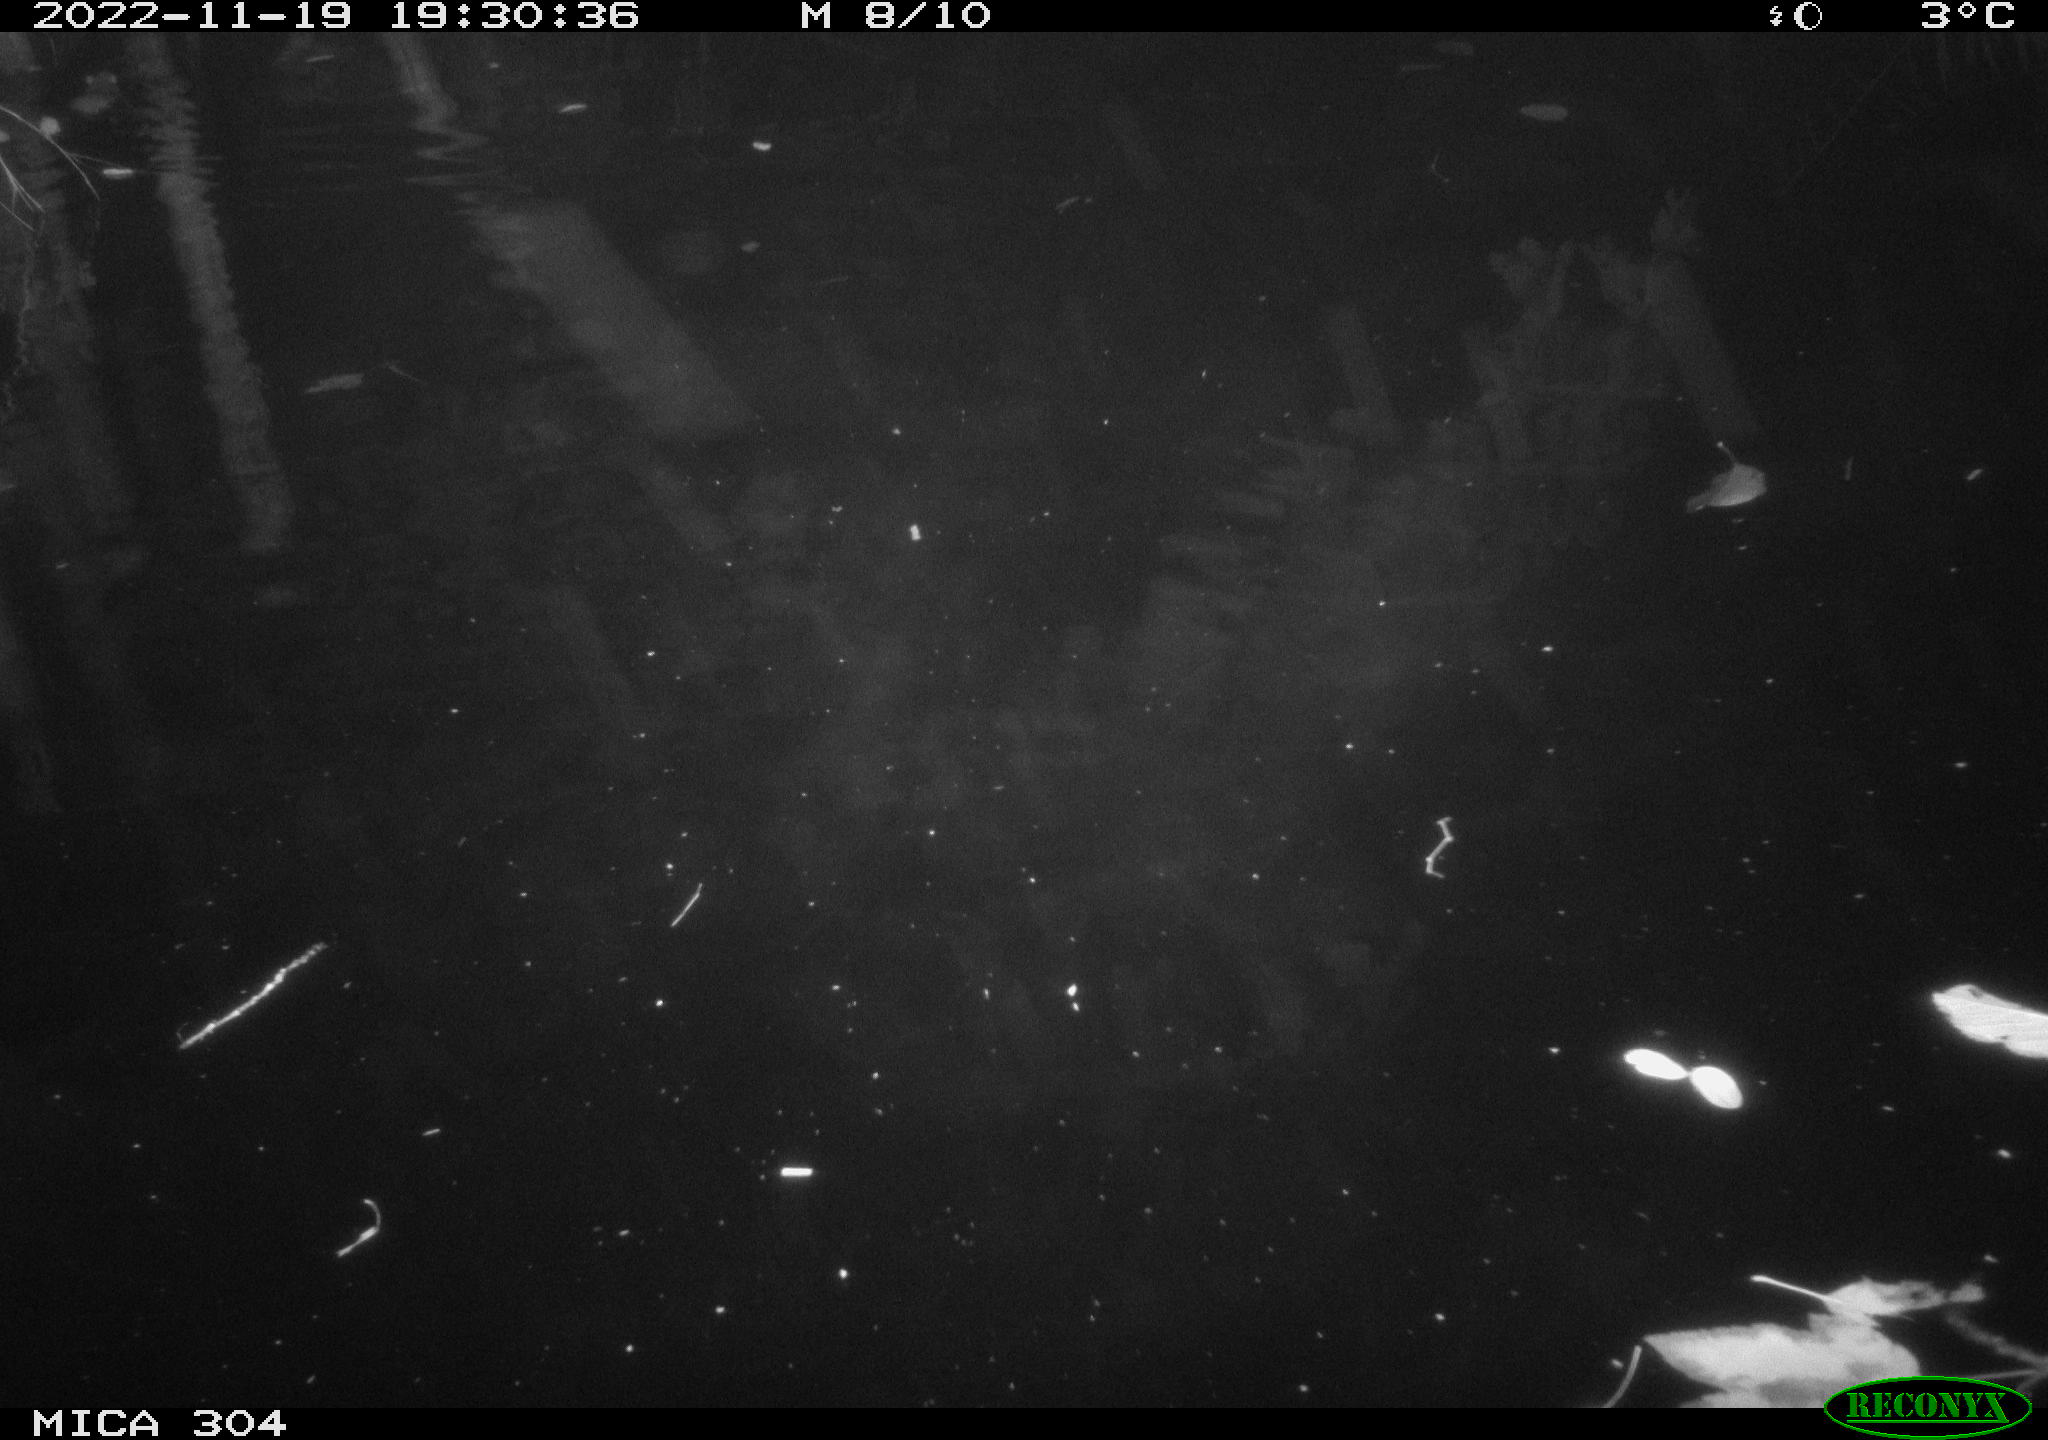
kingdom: Animalia
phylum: Chordata
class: Mammalia
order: Rodentia
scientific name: Rodentia
